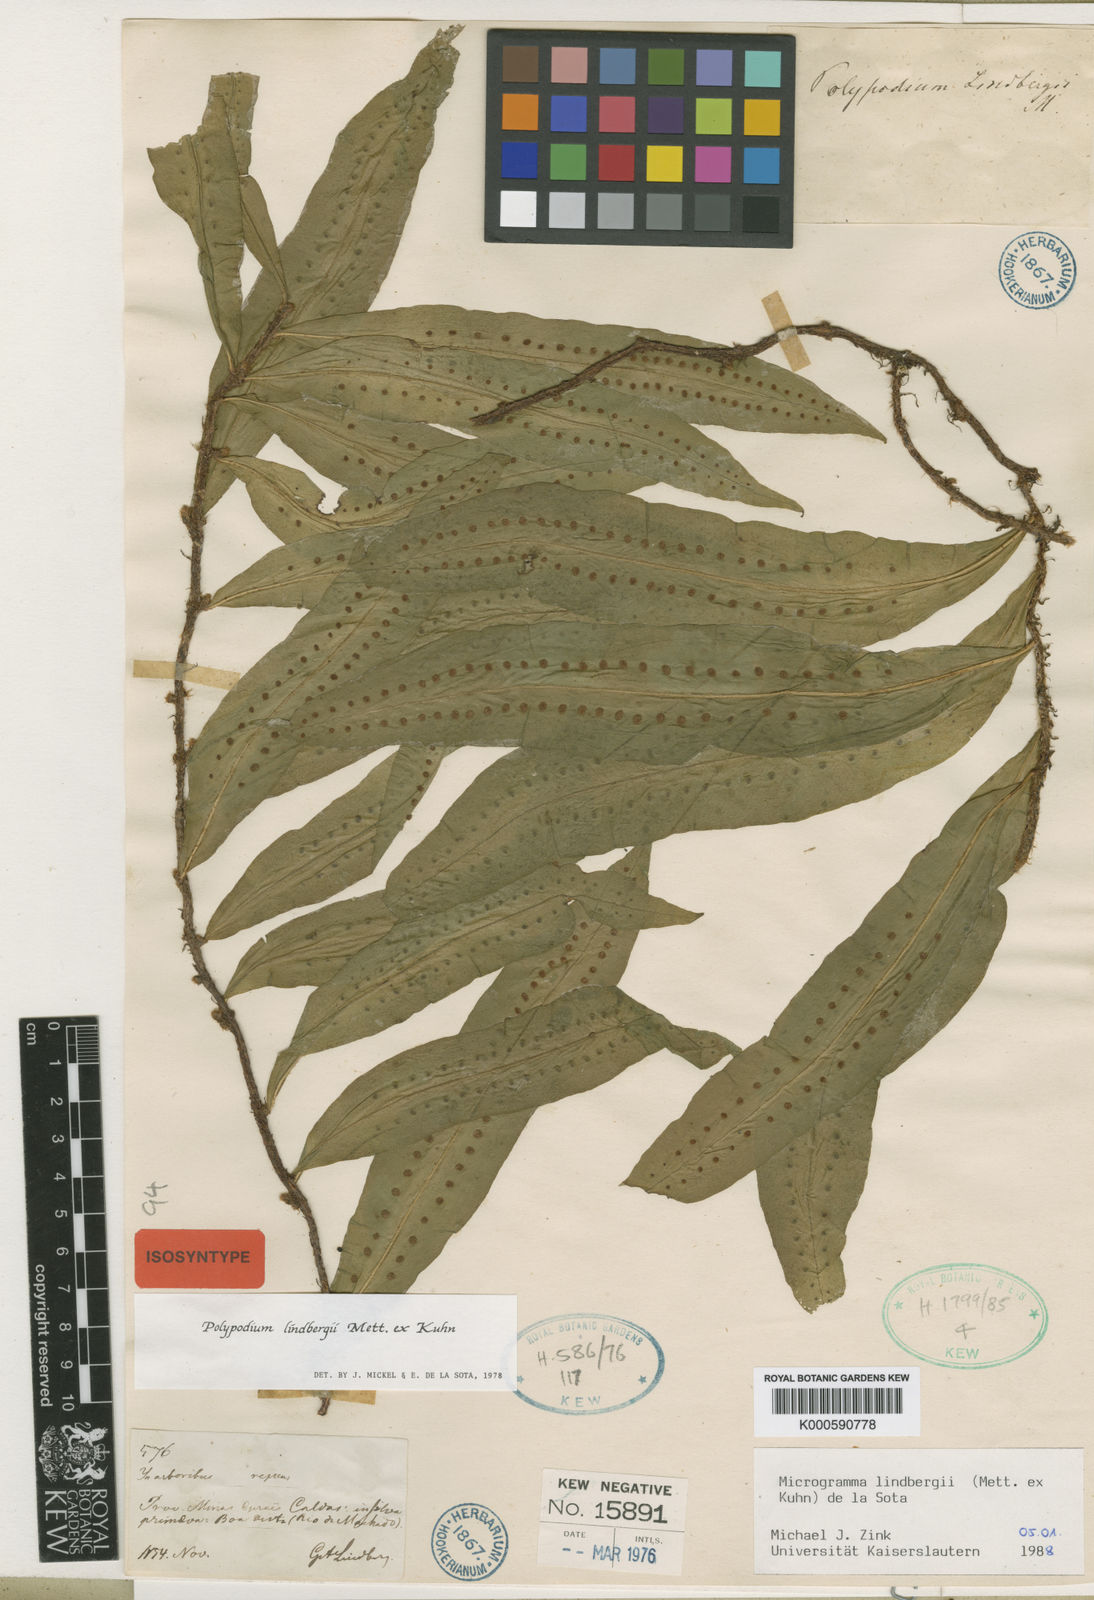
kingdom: Plantae
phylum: Tracheophyta
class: Polypodiopsida
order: Polypodiales
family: Polypodiaceae
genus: Microgramma
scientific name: Microgramma
